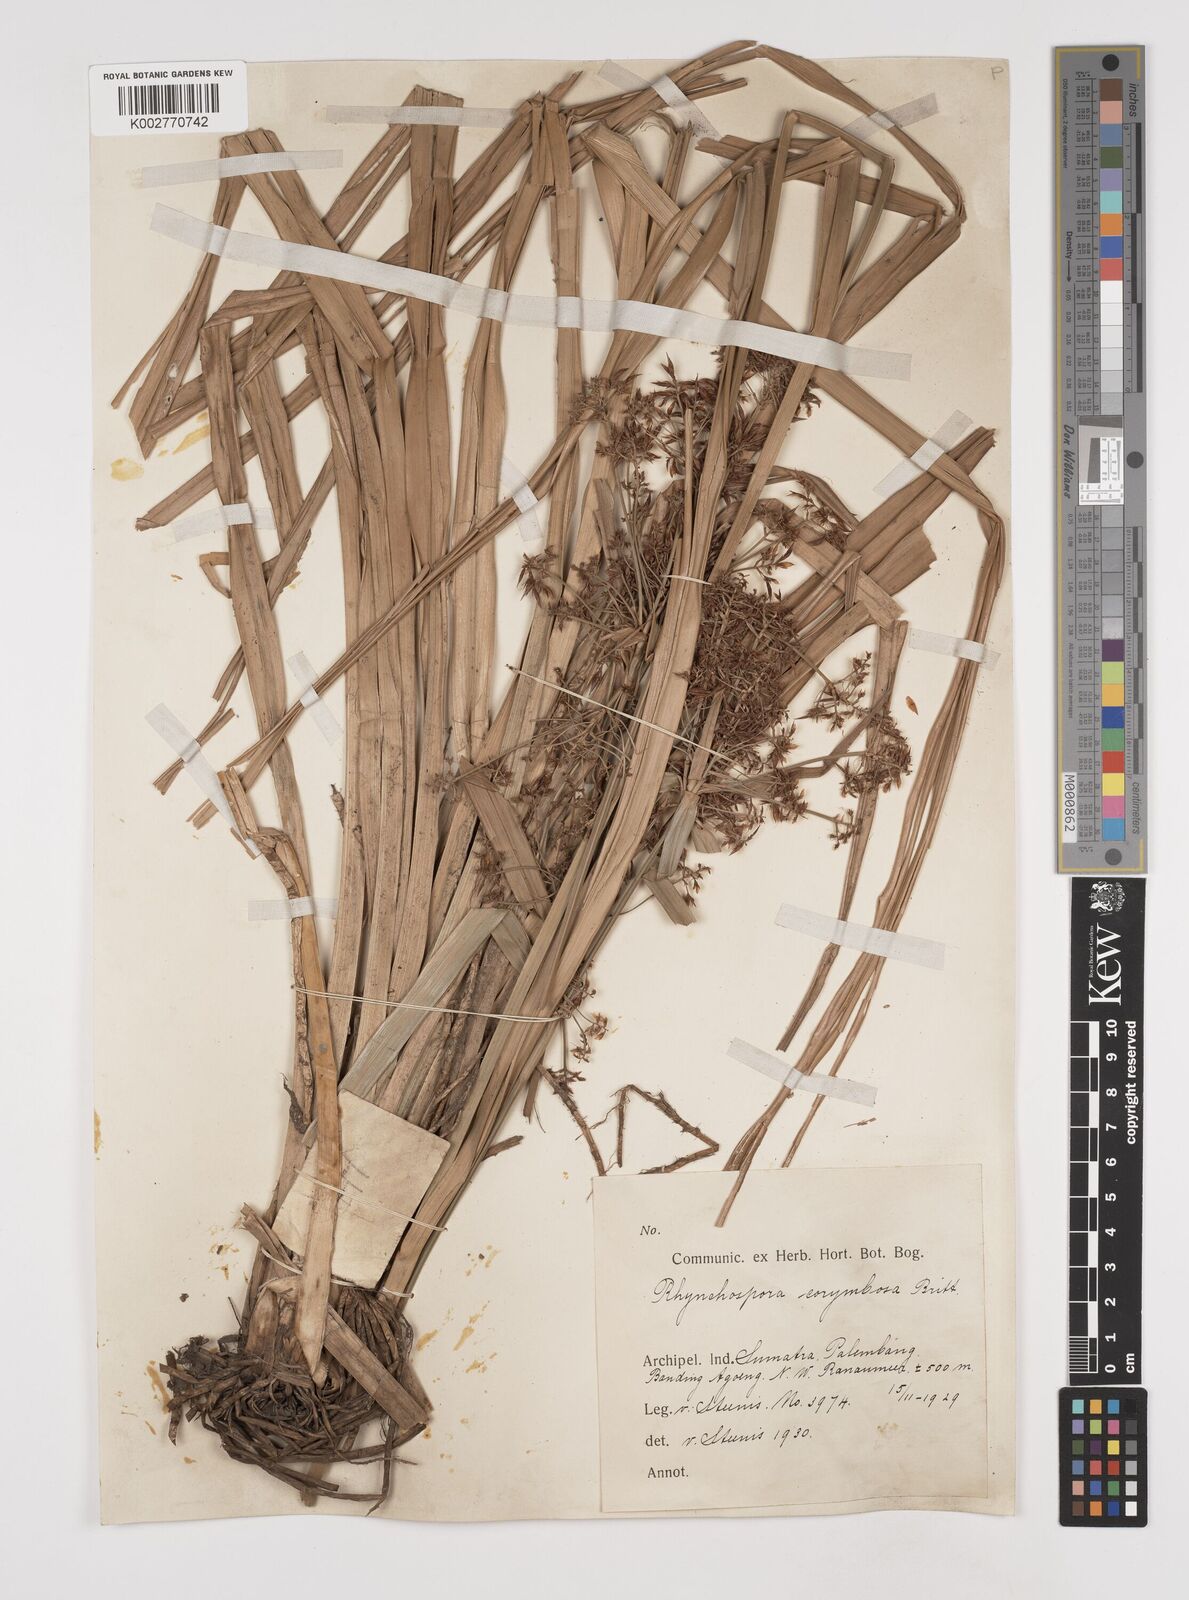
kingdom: Plantae
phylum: Tracheophyta
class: Liliopsida
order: Poales
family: Cyperaceae
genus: Rhynchospora
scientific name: Rhynchospora corymbosa
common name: Golden beak sedge
